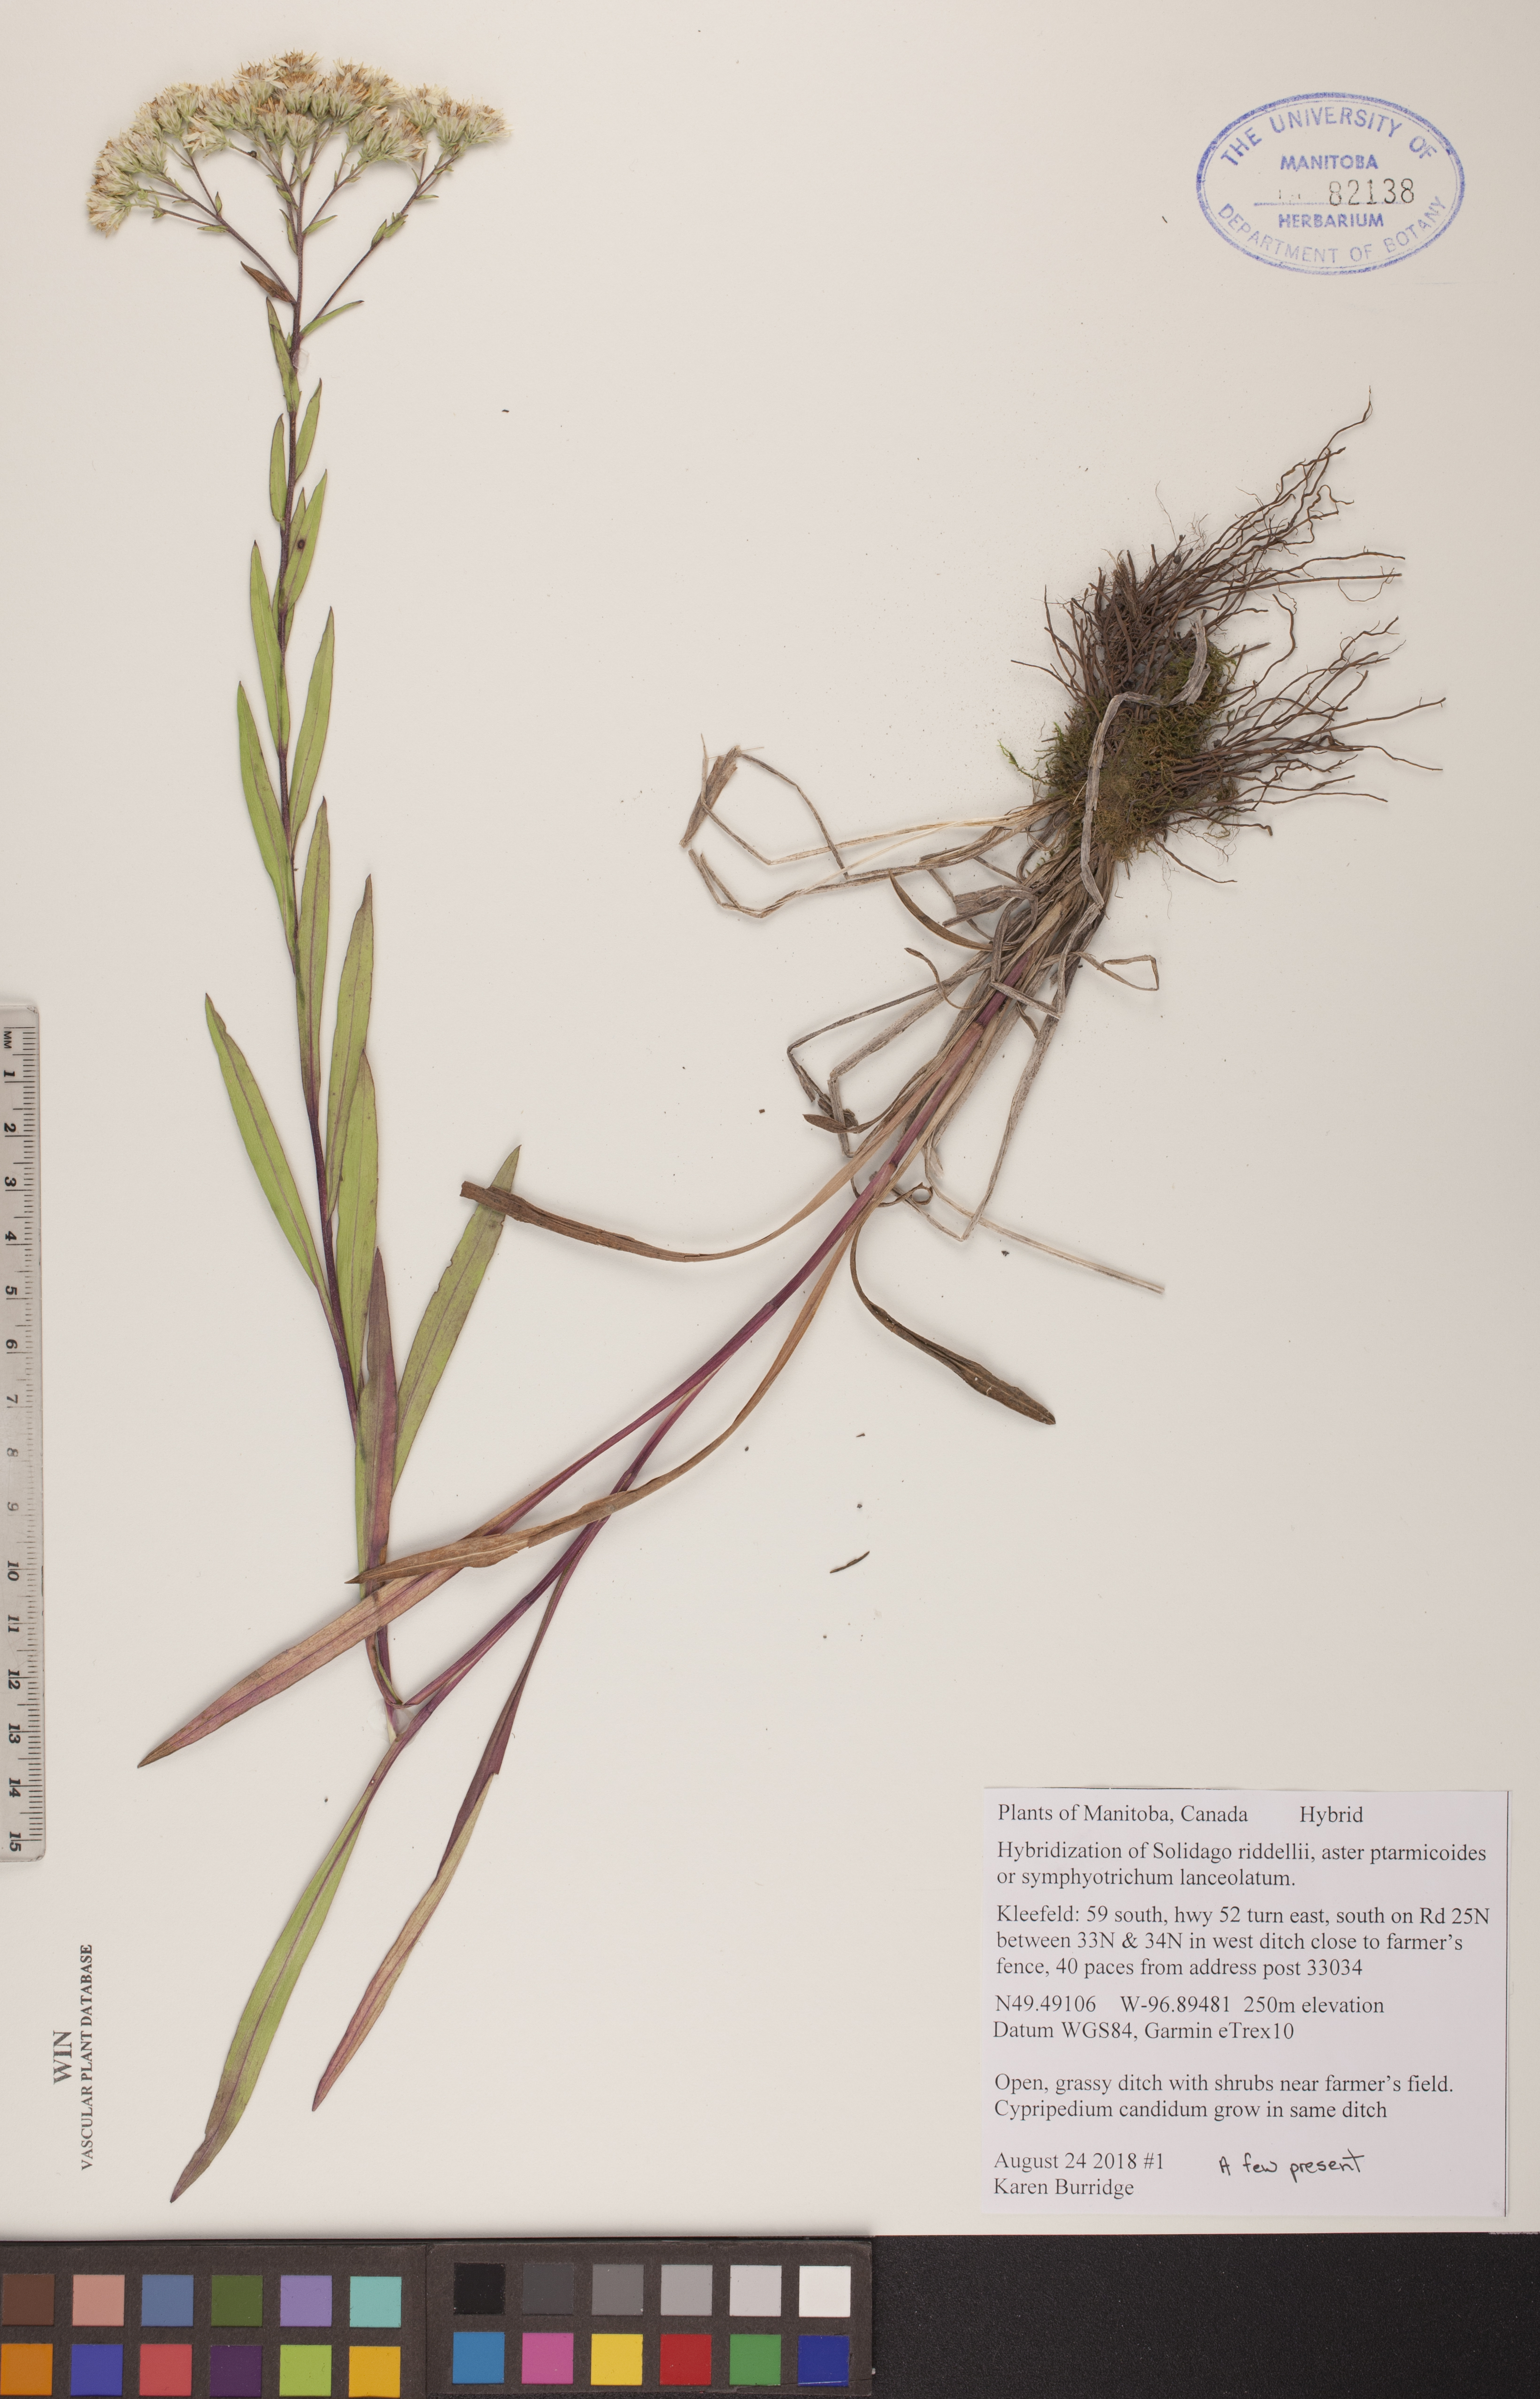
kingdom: Plantae
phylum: Tracheophyta
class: Magnoliopsida
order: Asterales
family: Asteraceae
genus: Solidago
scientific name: Solidago riddellii
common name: Riddell's goldenrod
